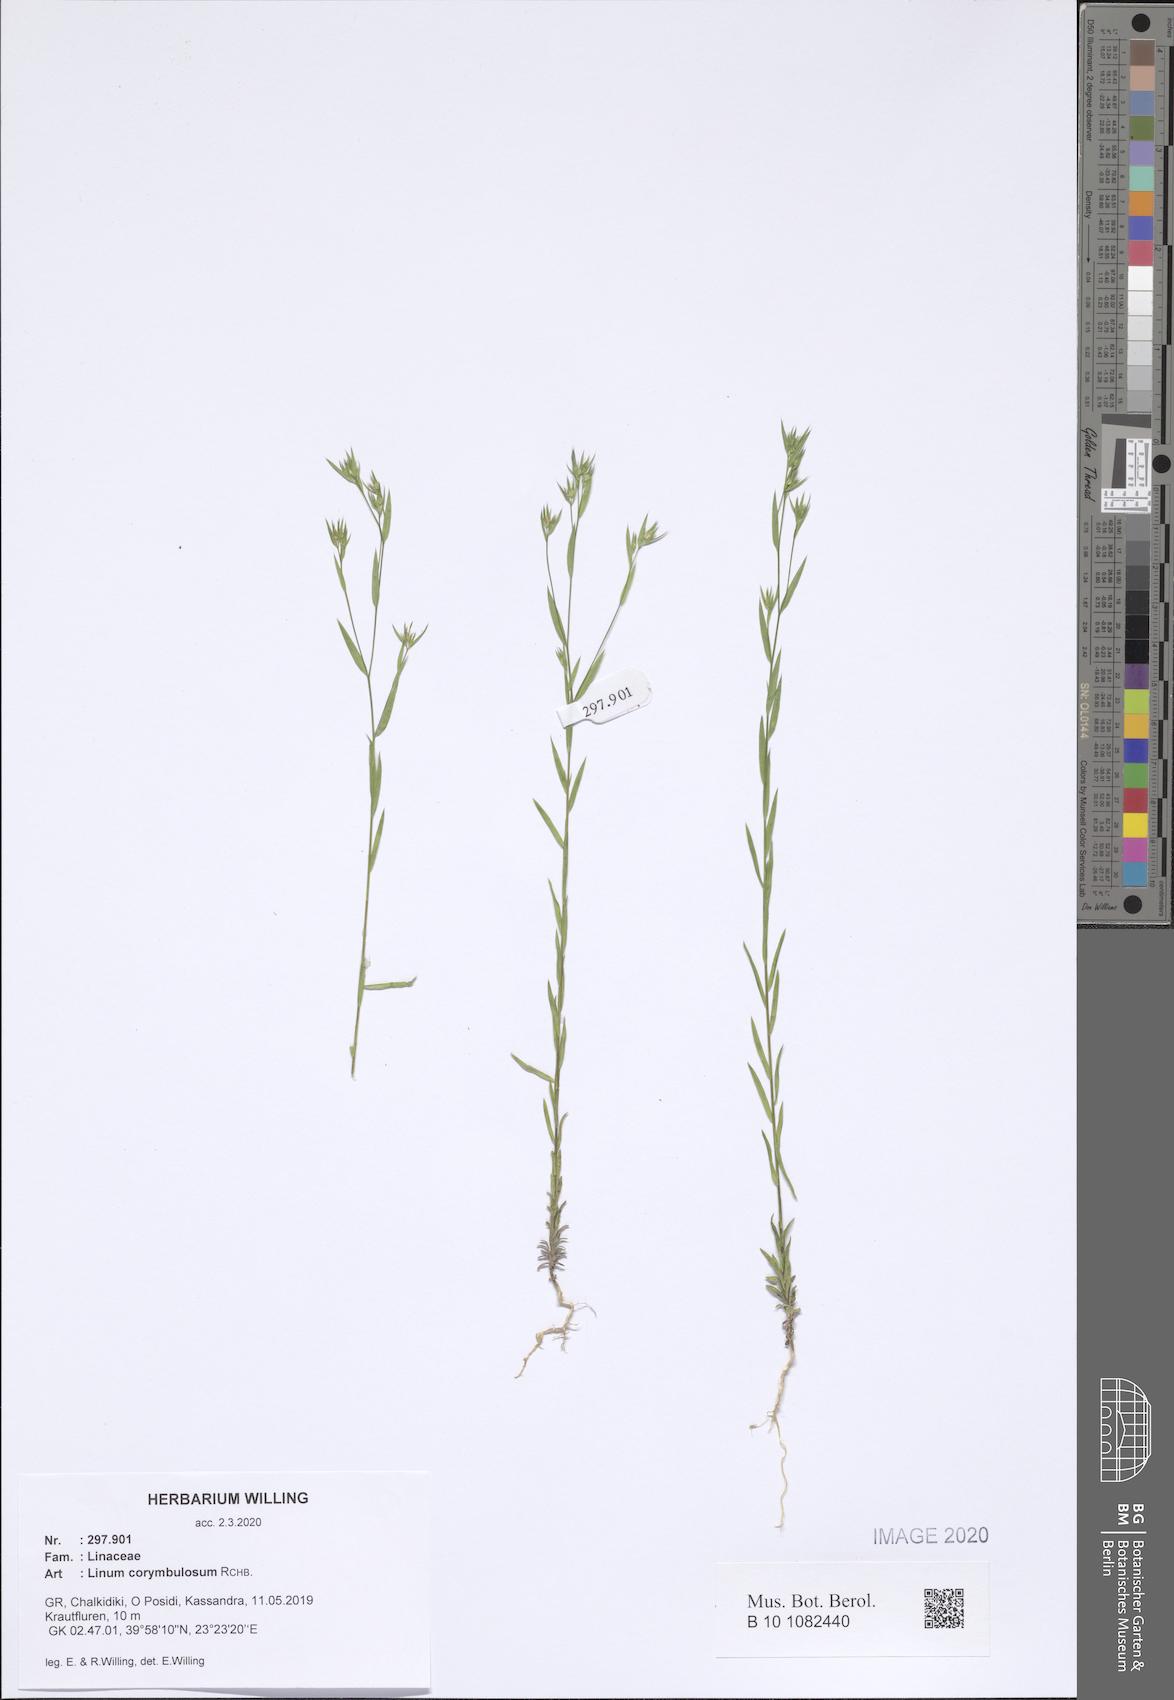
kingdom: Plantae
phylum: Tracheophyta
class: Magnoliopsida
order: Malpighiales
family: Linaceae
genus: Linum
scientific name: Linum corymbulosum
